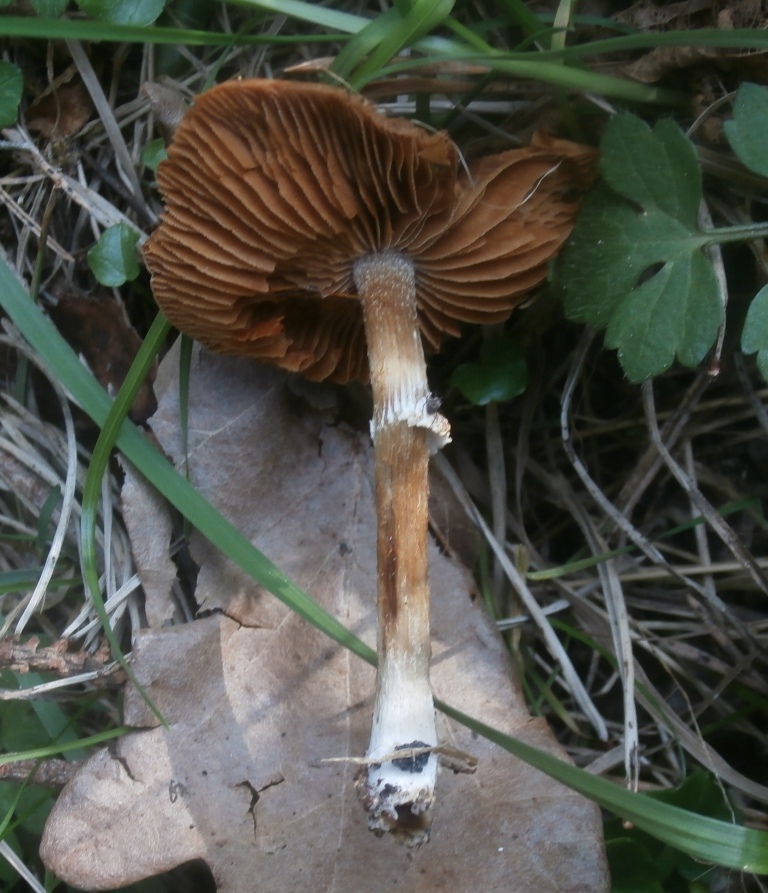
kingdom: Fungi
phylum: Basidiomycota
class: Agaricomycetes
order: Agaricales
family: Bolbitiaceae
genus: Conocybe
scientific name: Conocybe aporos
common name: tidlig dansehat
